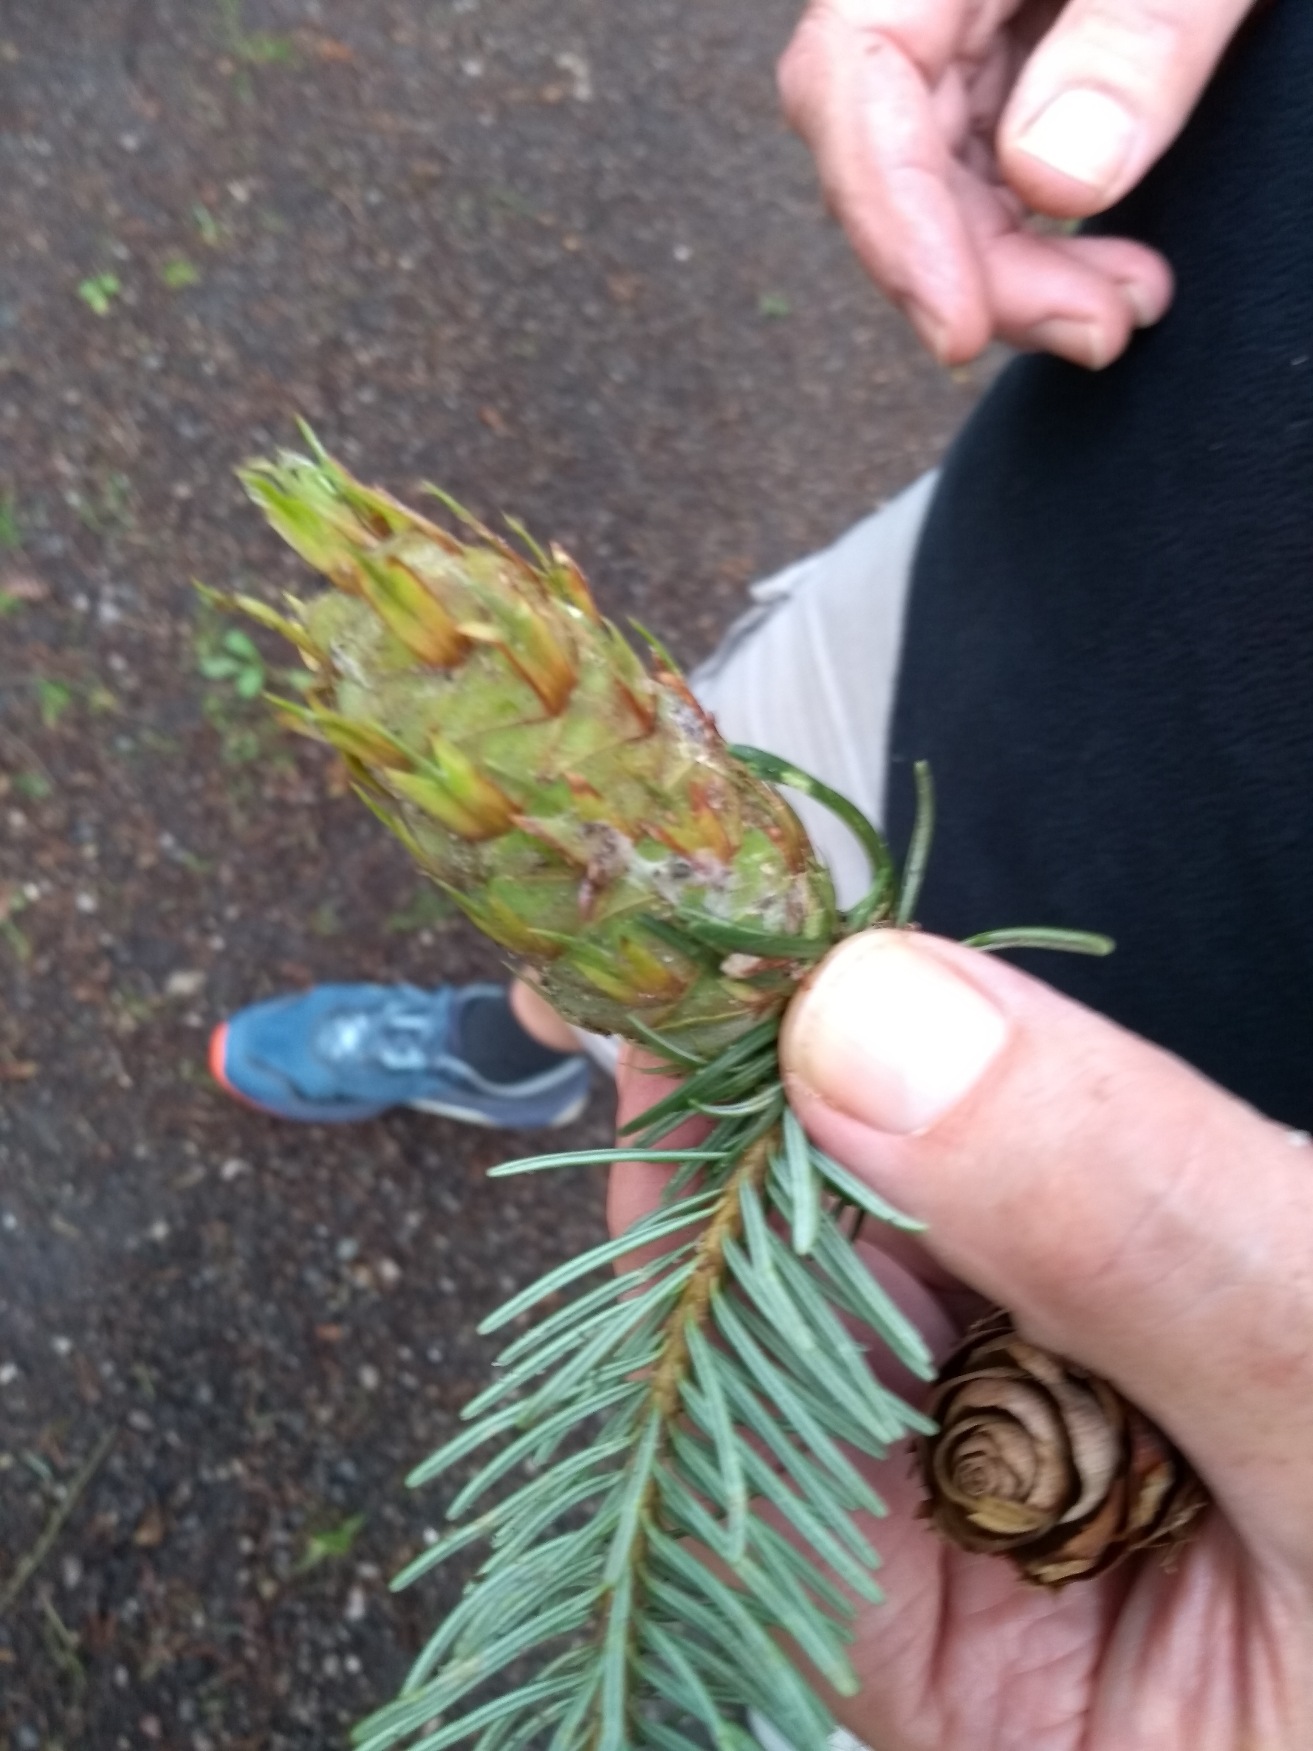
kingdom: Plantae
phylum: Tracheophyta
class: Pinopsida
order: Pinales
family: Pinaceae
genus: Pseudotsuga
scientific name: Pseudotsuga menziesii
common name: Douglasgran
